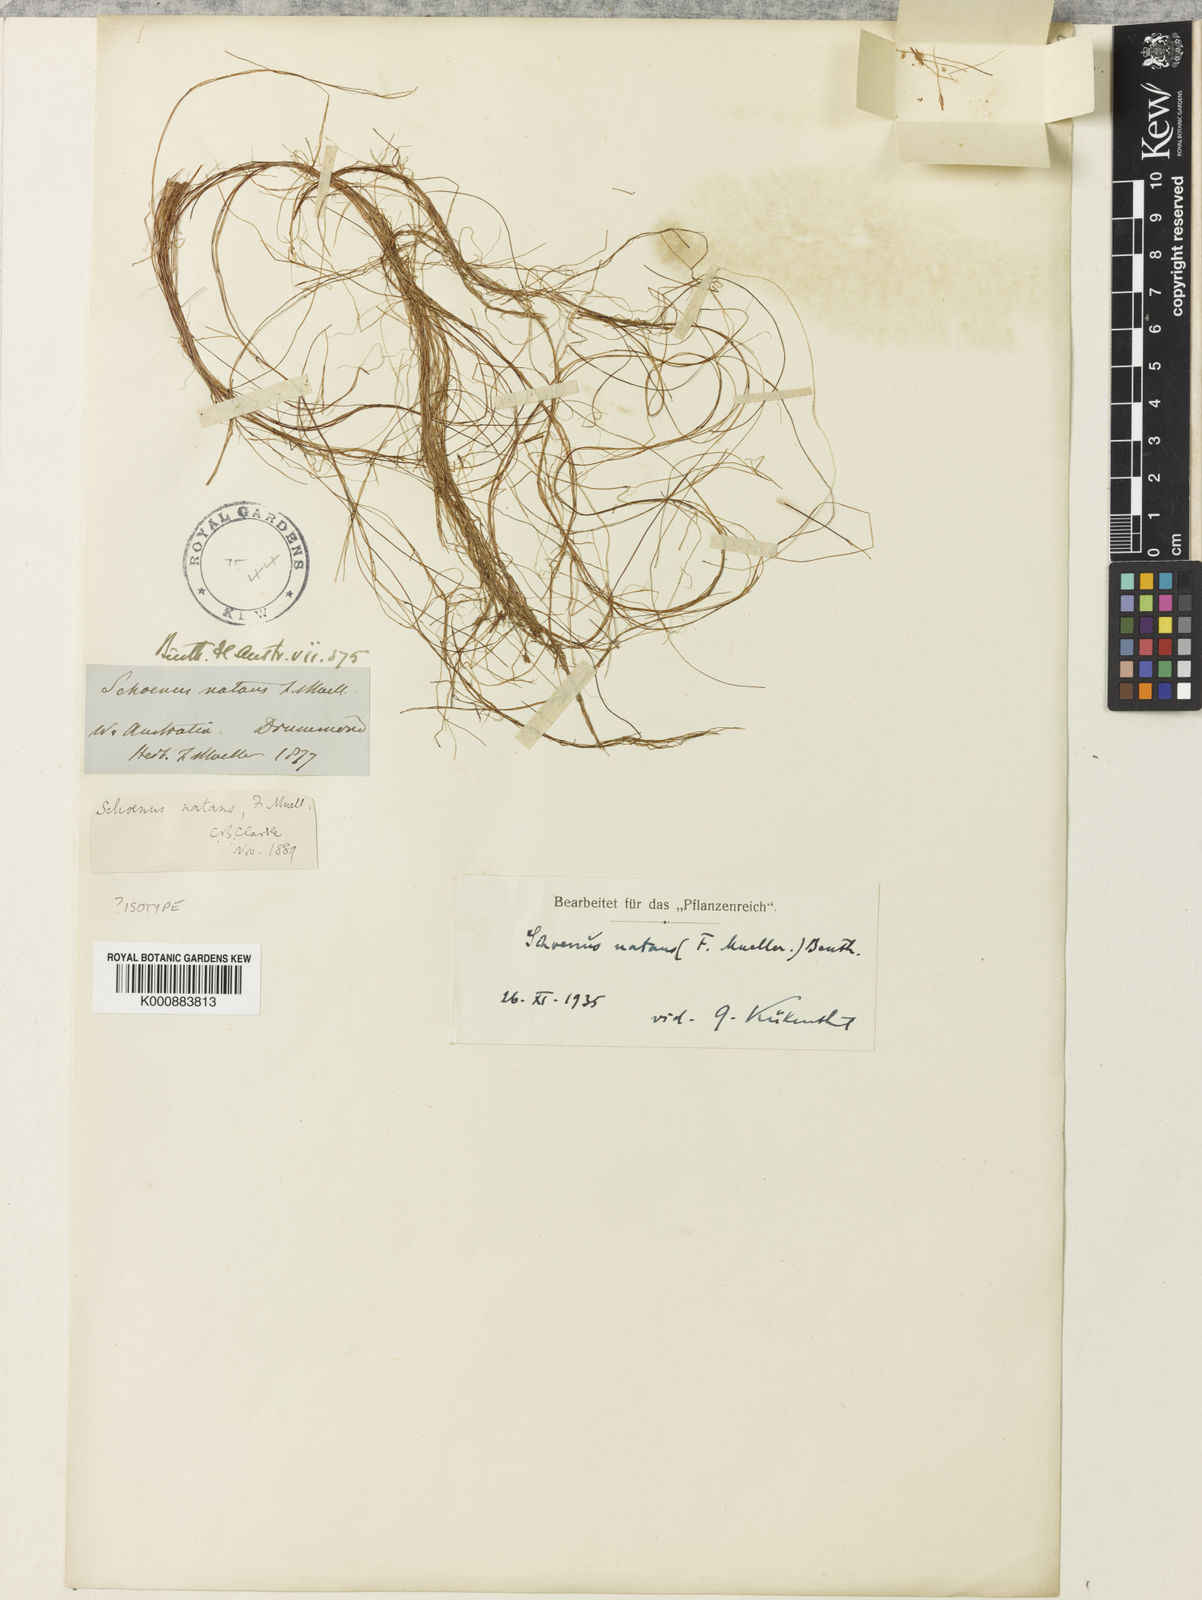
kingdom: Plantae
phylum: Tracheophyta
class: Liliopsida
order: Poales
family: Cyperaceae
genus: Schoenus
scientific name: Schoenus natans
